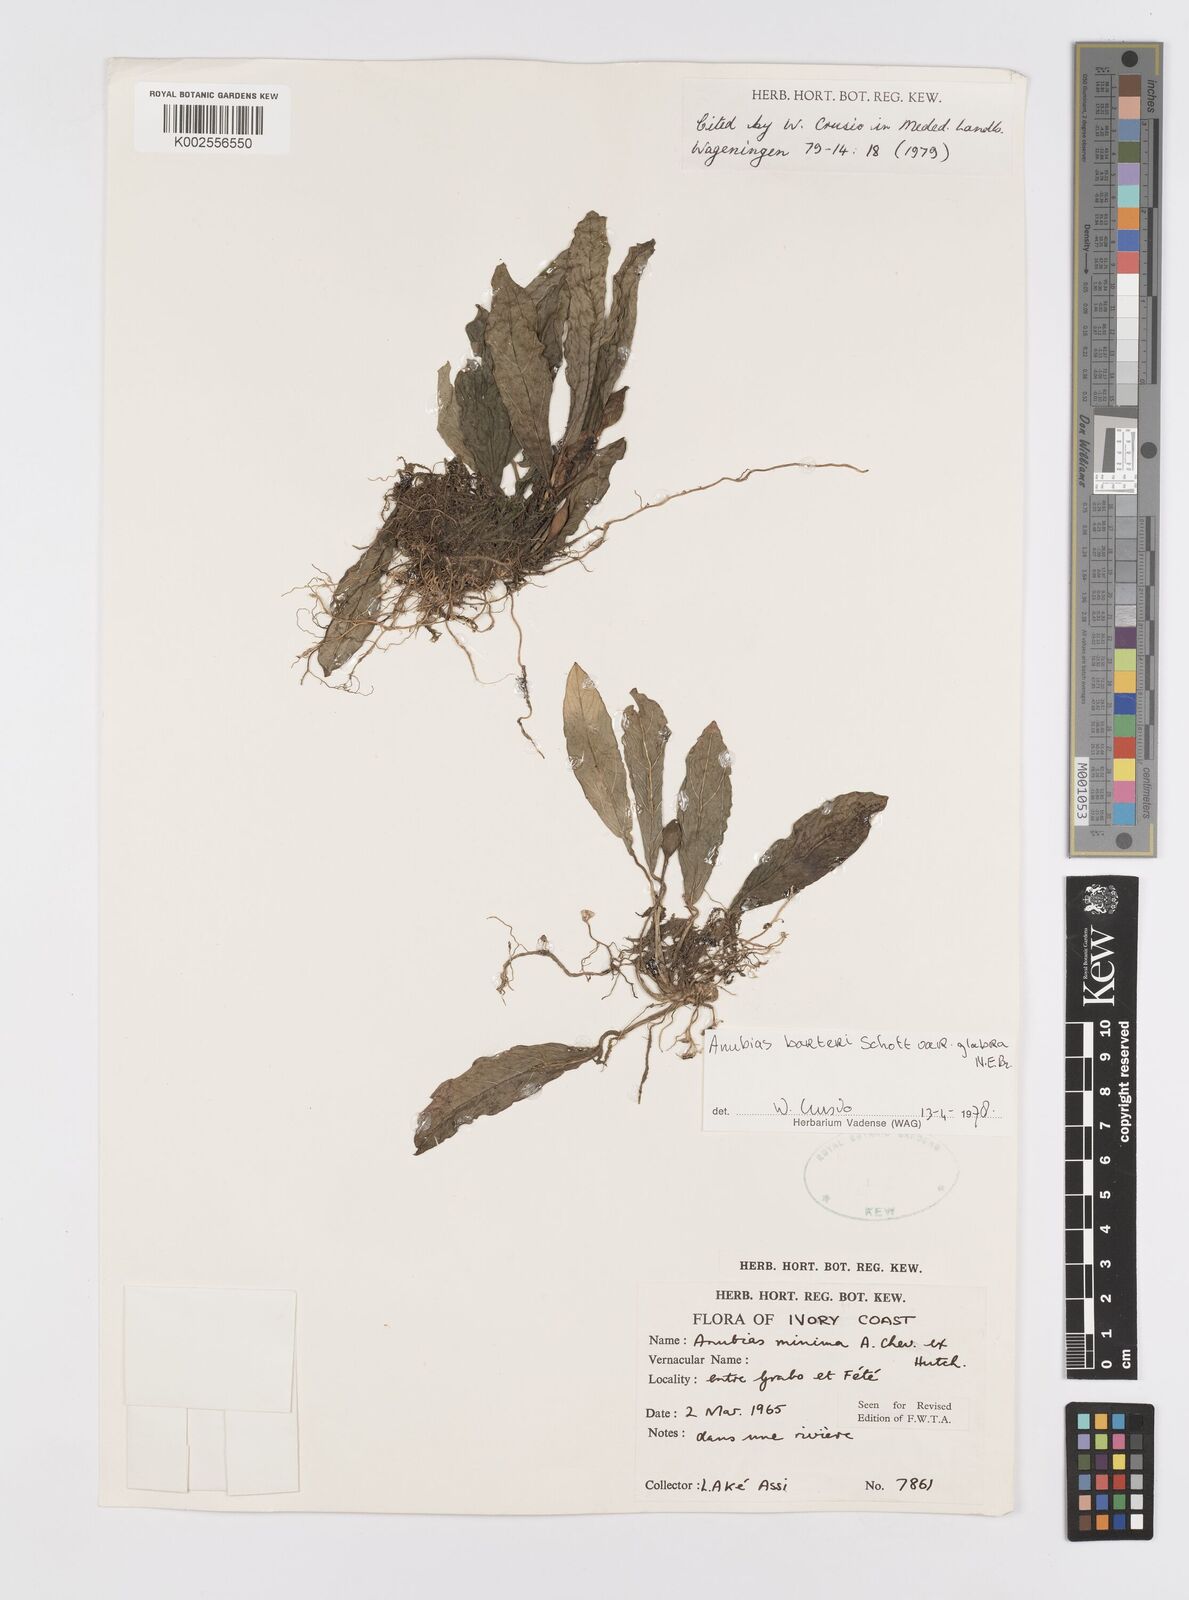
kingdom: Plantae
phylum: Tracheophyta
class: Liliopsida
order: Alismatales
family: Araceae
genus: Anubias
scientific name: Anubias barteri
